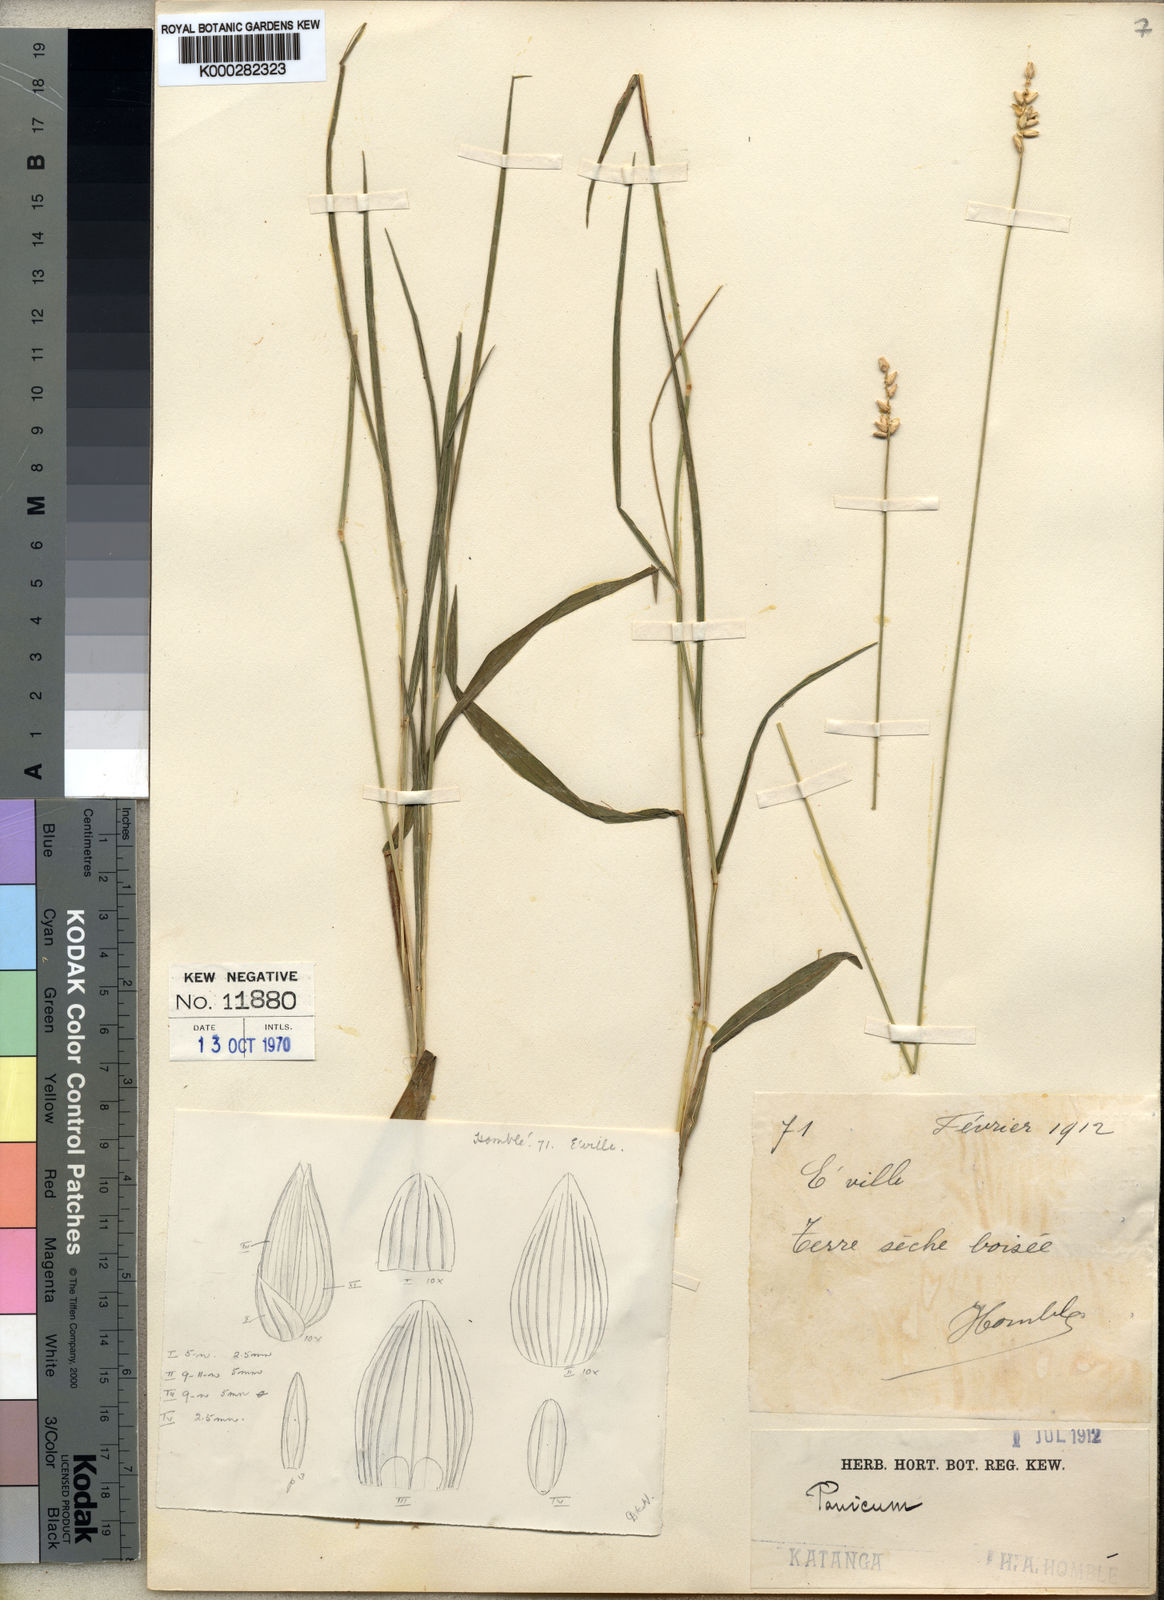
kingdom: Plantae
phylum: Tracheophyta
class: Liliopsida
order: Poales
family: Poaceae
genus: Sacciolepis
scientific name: Sacciolepis seslerioides
